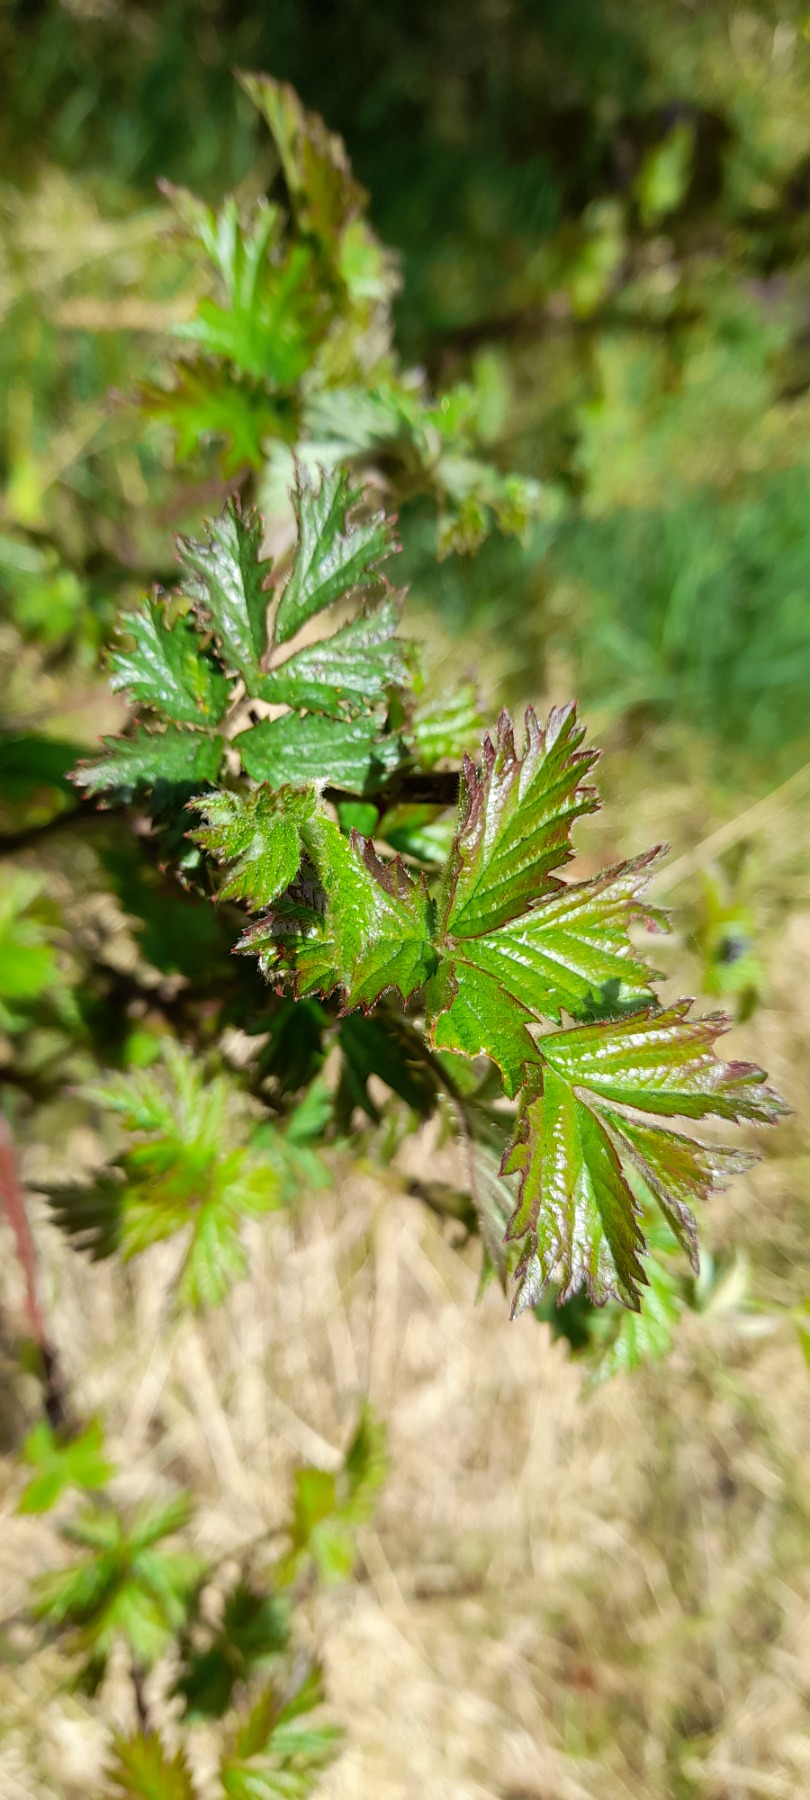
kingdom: Plantae
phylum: Tracheophyta
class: Magnoliopsida
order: Rosales
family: Rosaceae
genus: Rubus
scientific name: Rubus laciniatus
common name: Fliget brombær
